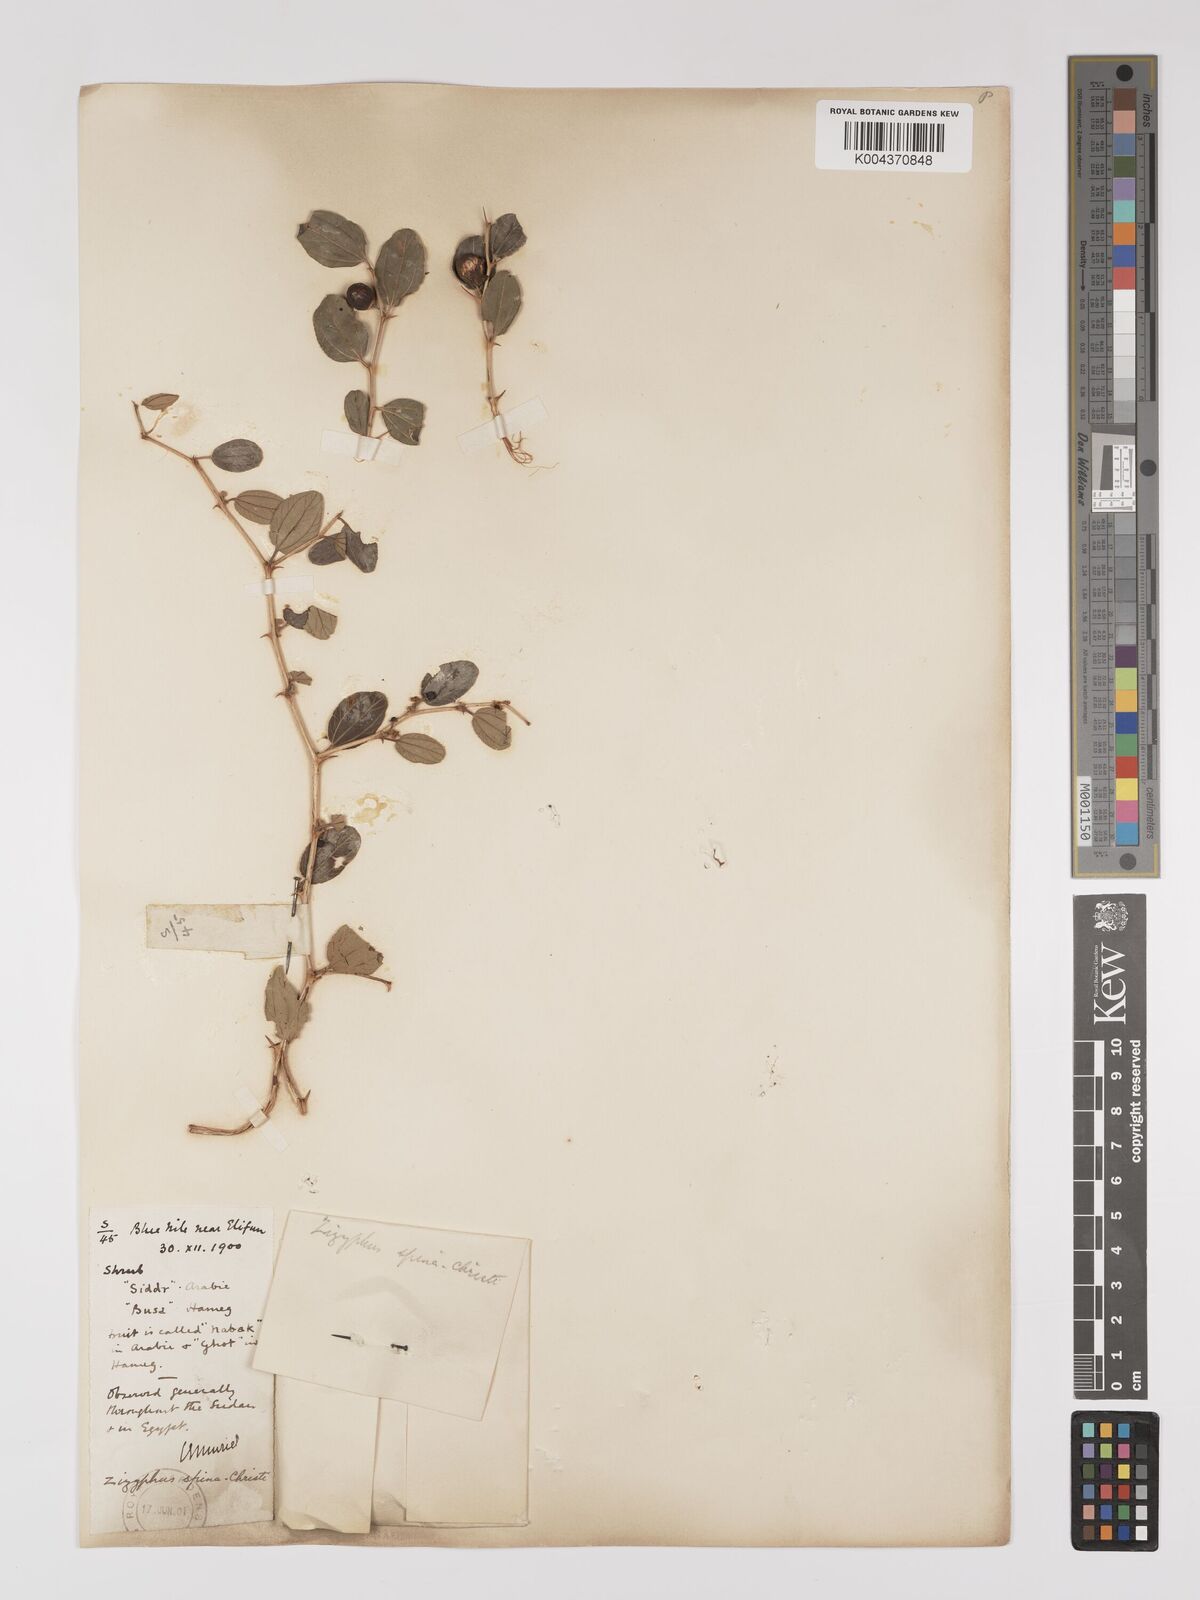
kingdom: Plantae
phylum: Tracheophyta
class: Magnoliopsida
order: Rosales
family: Rhamnaceae
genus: Ziziphus
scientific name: Ziziphus spina-christi
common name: Syrian christ-thorn
